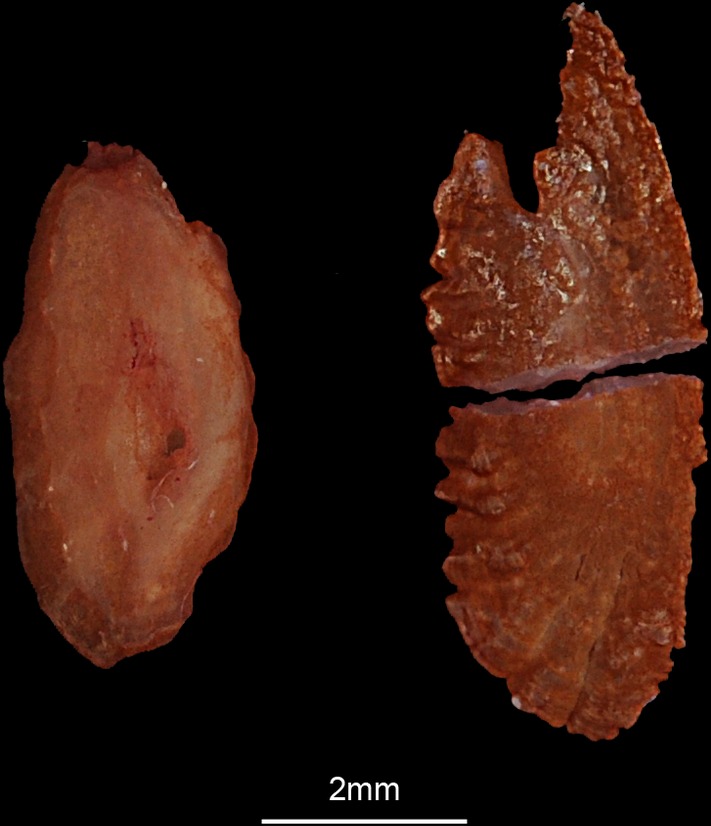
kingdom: Animalia
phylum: Chordata
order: Perciformes
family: Terapontidae
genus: Terapon
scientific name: Terapon theraps
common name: Largescaled therapon
